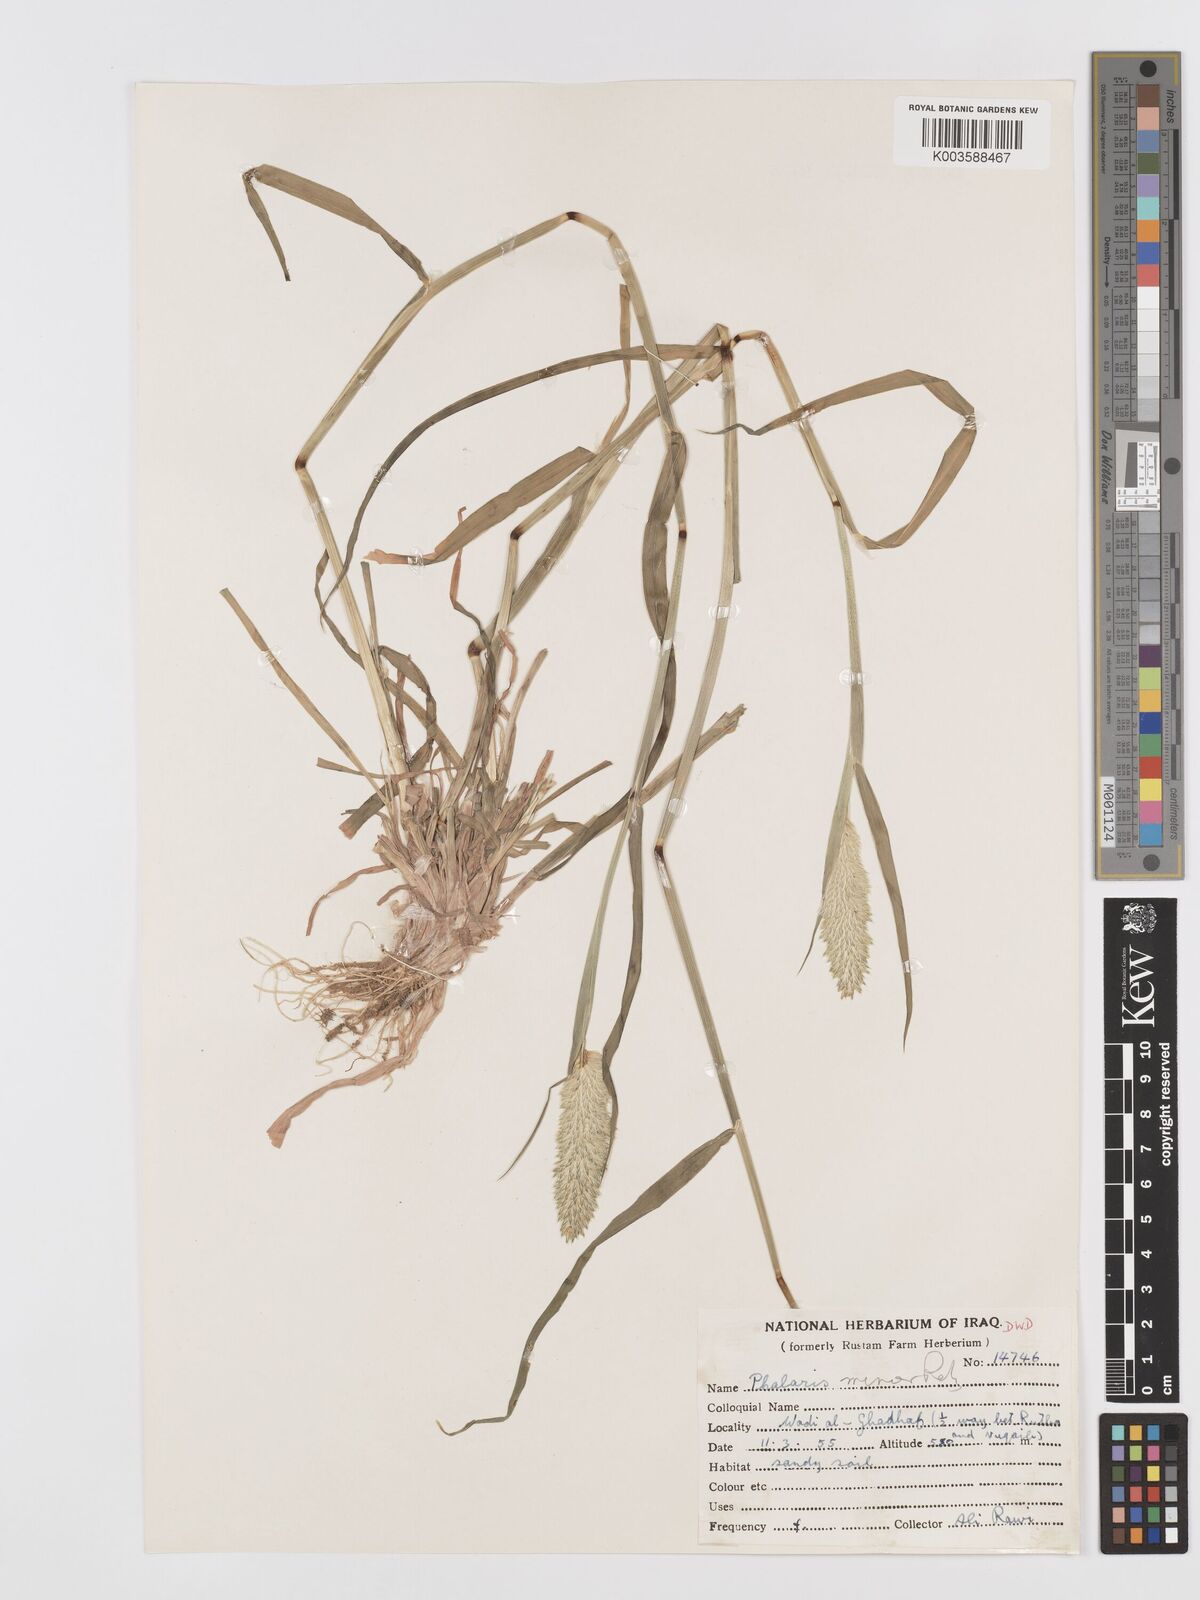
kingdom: Plantae
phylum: Tracheophyta
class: Liliopsida
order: Poales
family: Poaceae
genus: Phalaris
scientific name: Phalaris minor
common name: Littleseed canarygrass
